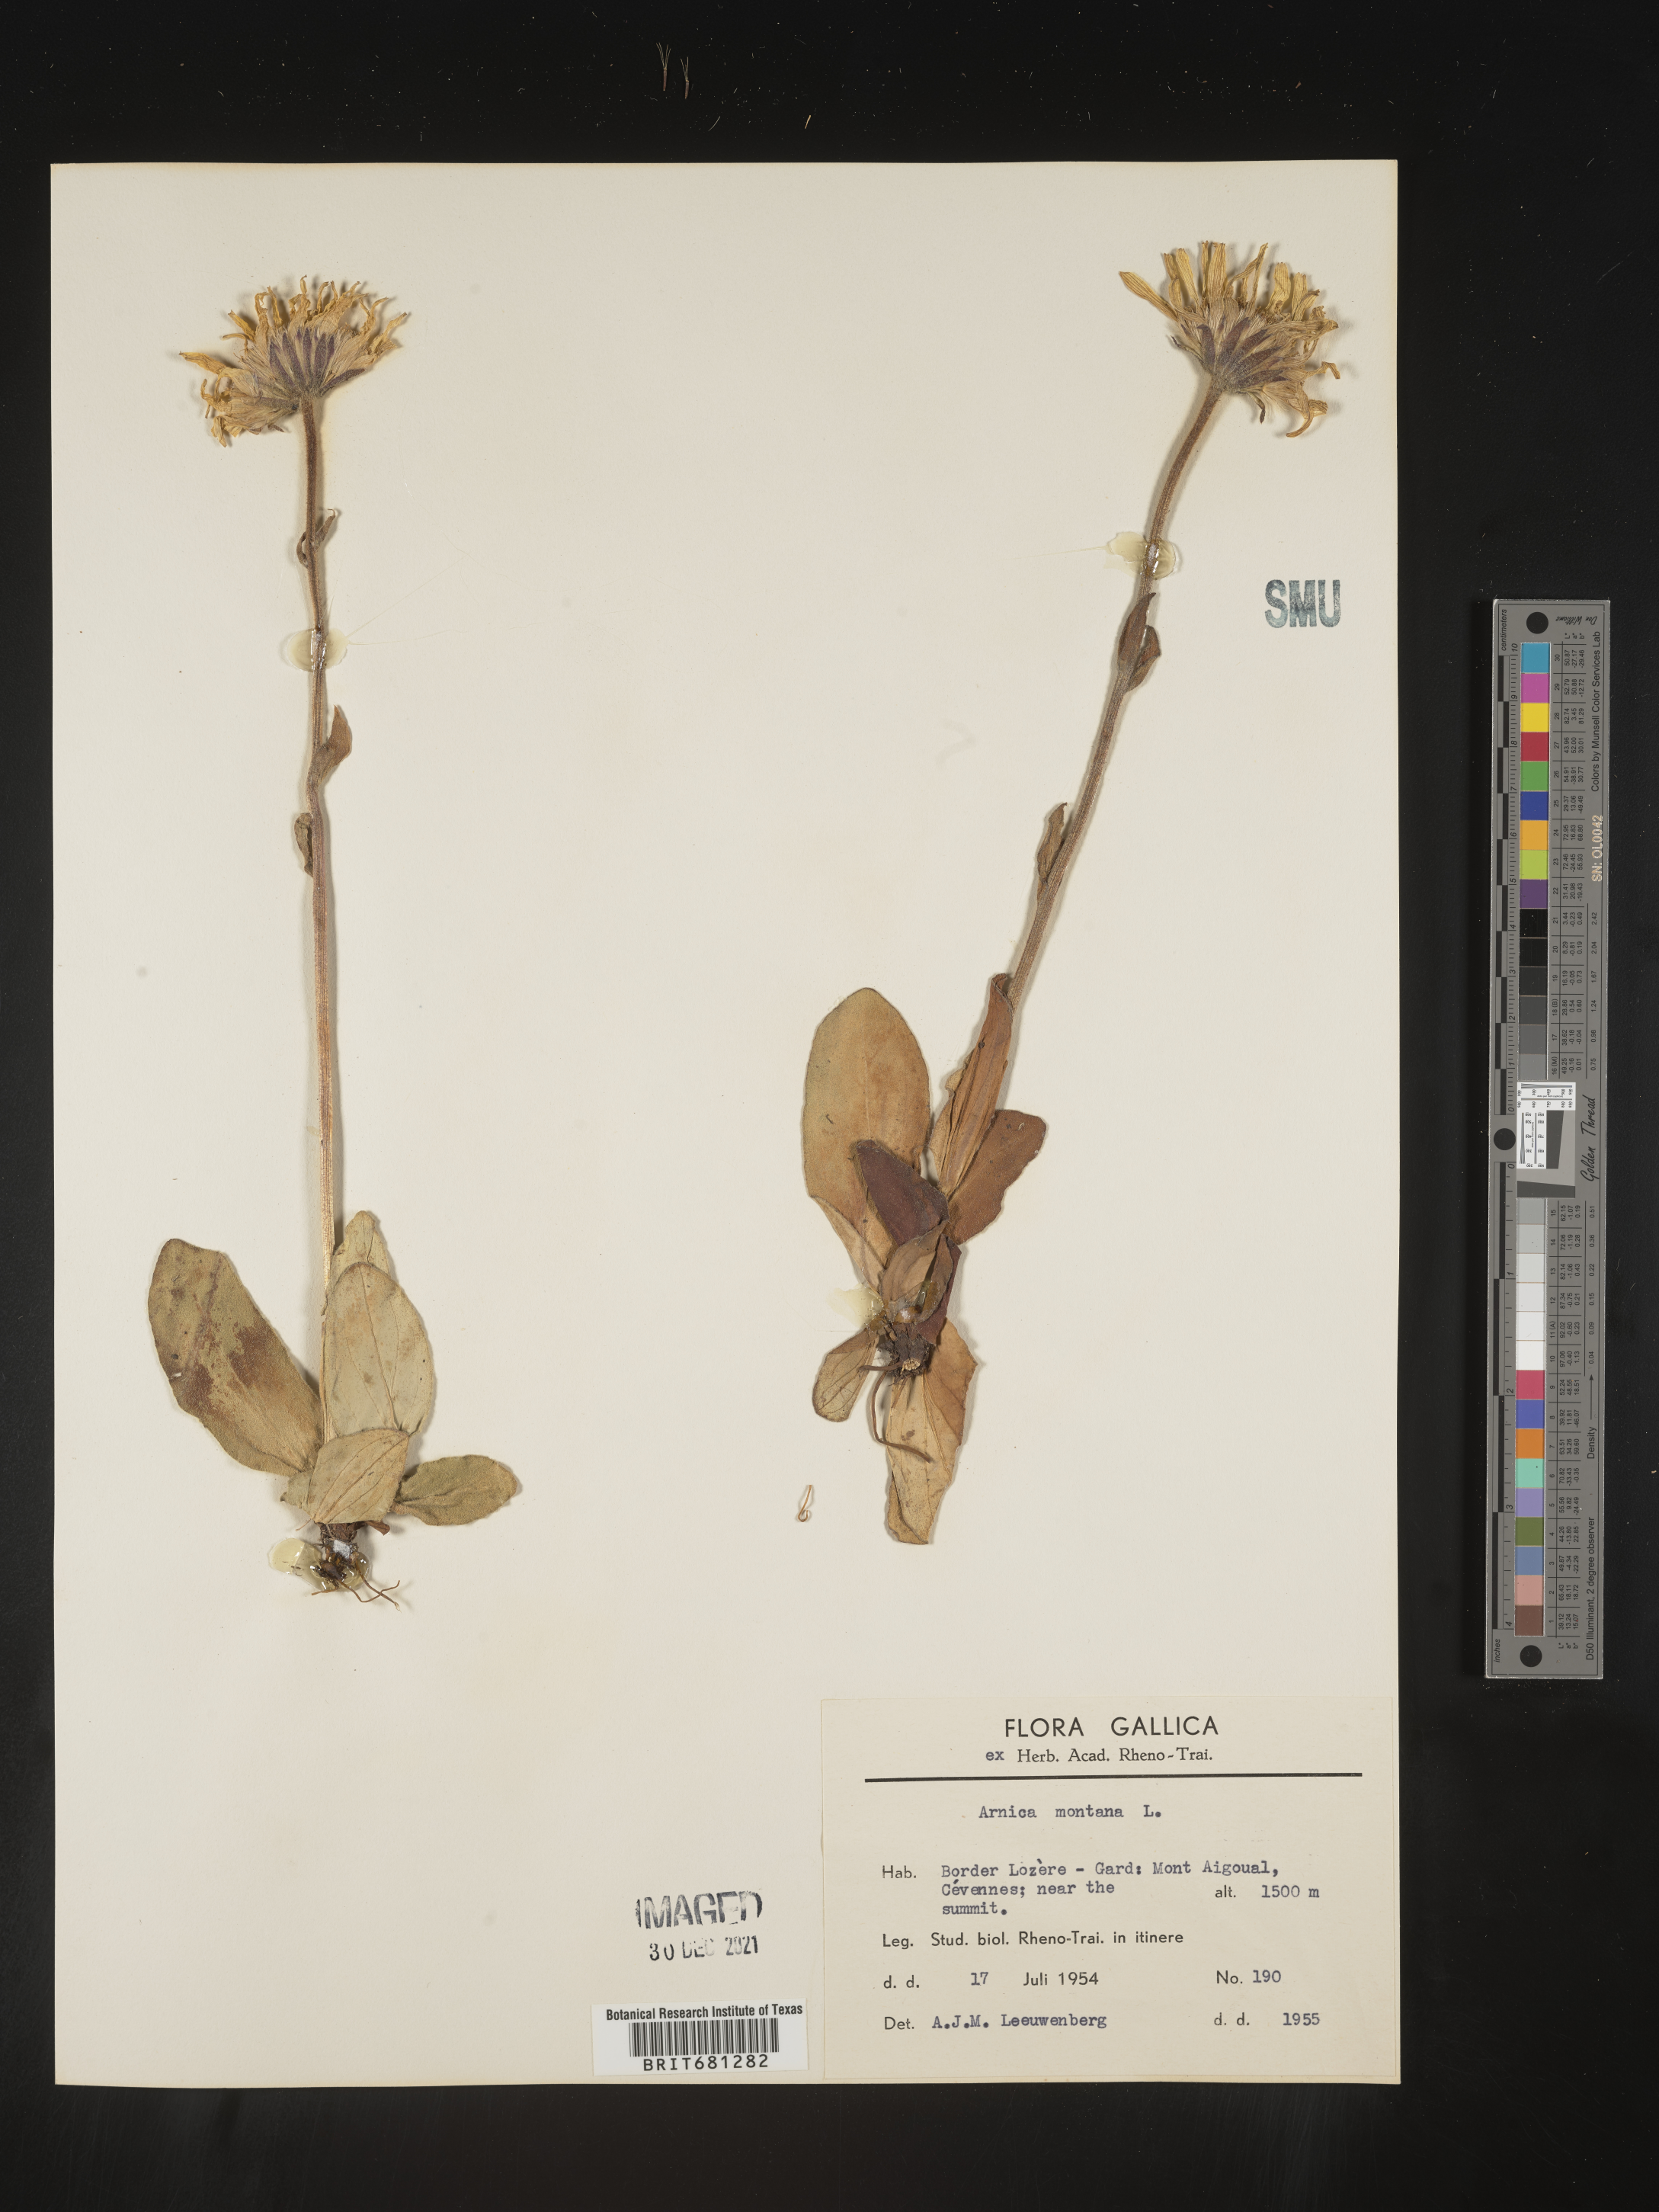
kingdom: Plantae
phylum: Tracheophyta
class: Magnoliopsida
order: Asterales
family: Asteraceae
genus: Arnica
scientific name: Arnica
